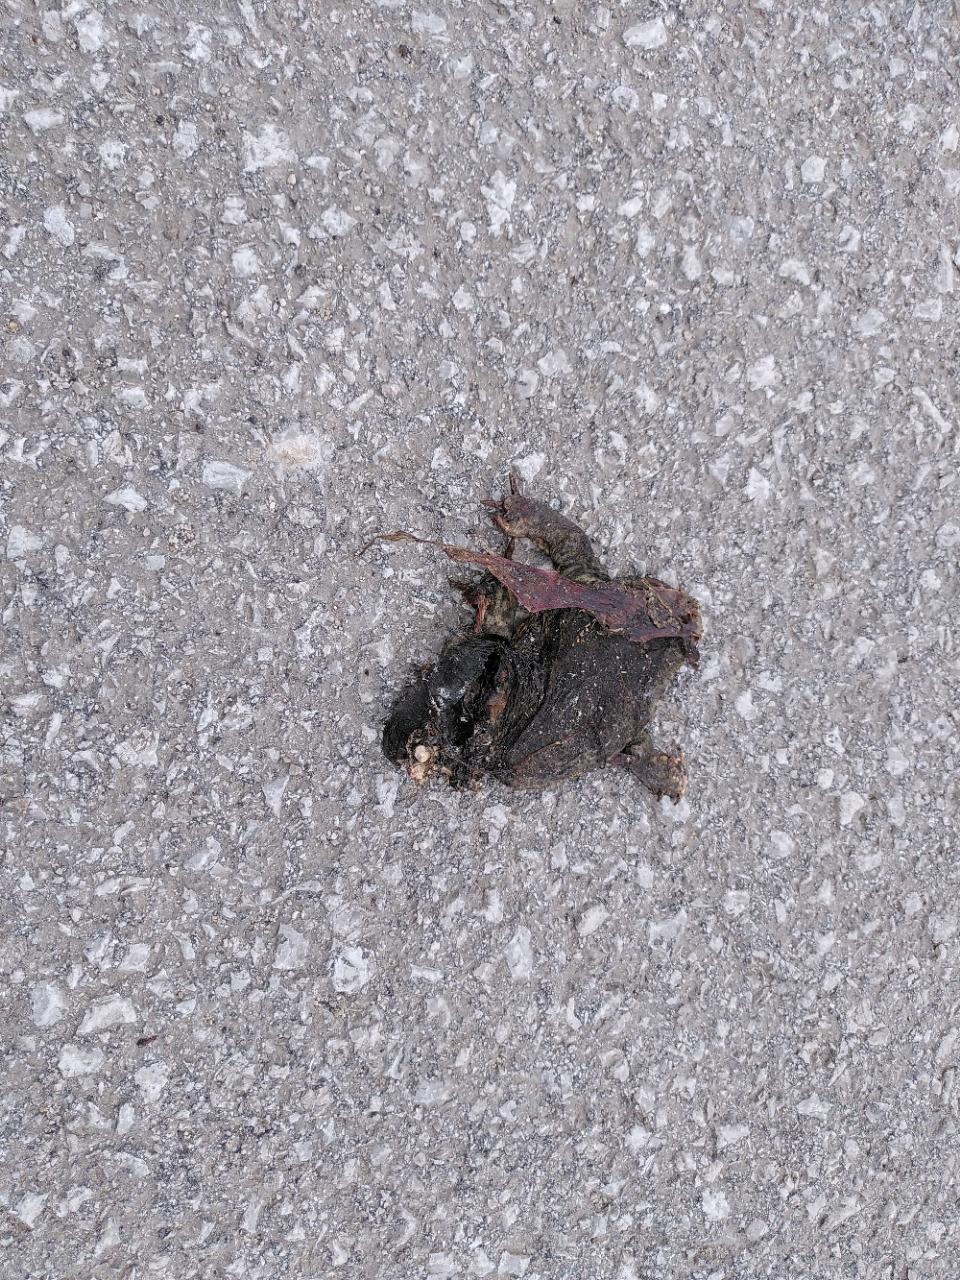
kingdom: Animalia
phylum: Chordata
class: Amphibia
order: Anura
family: Bufonidae
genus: Bufo
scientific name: Bufo bufo
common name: Common toad
